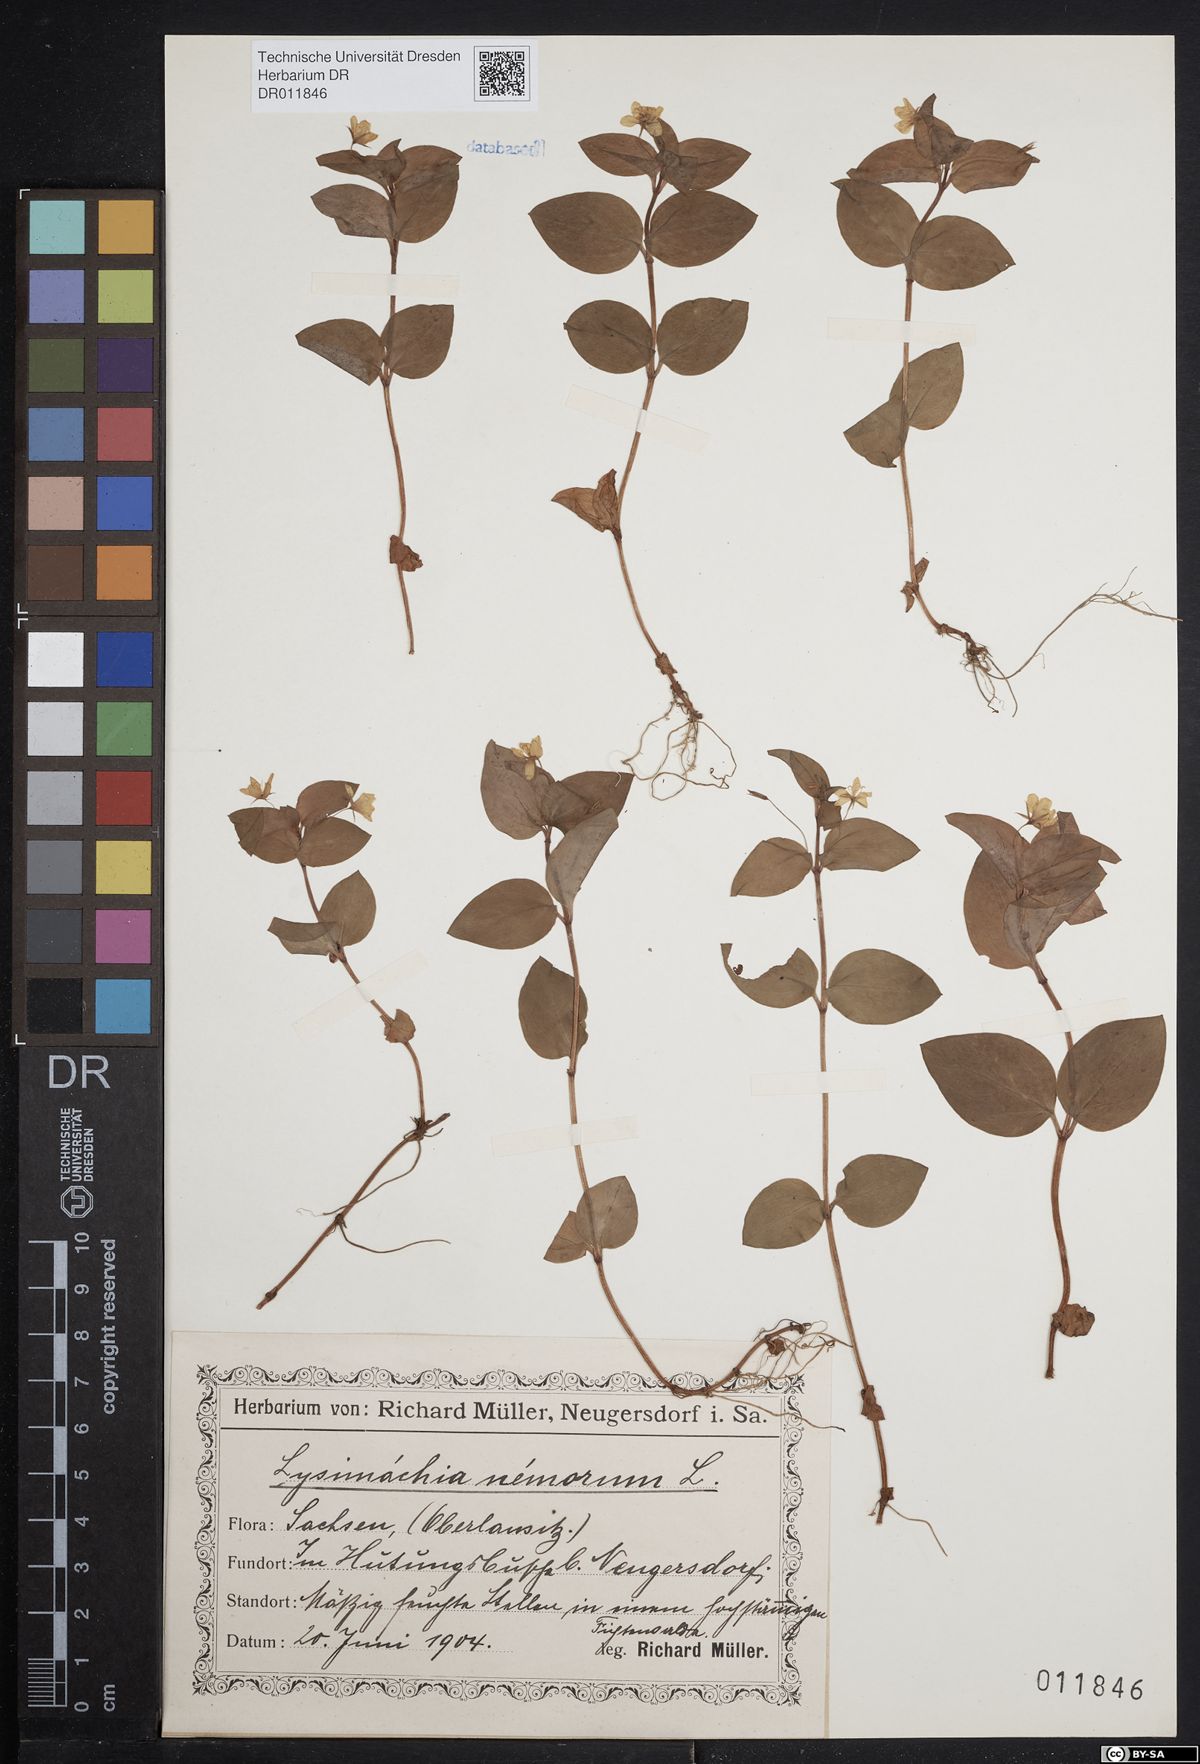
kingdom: Plantae
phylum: Tracheophyta
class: Magnoliopsida
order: Ericales
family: Primulaceae
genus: Lysimachia
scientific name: Lysimachia nemorum
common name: Yellow pimpernel
